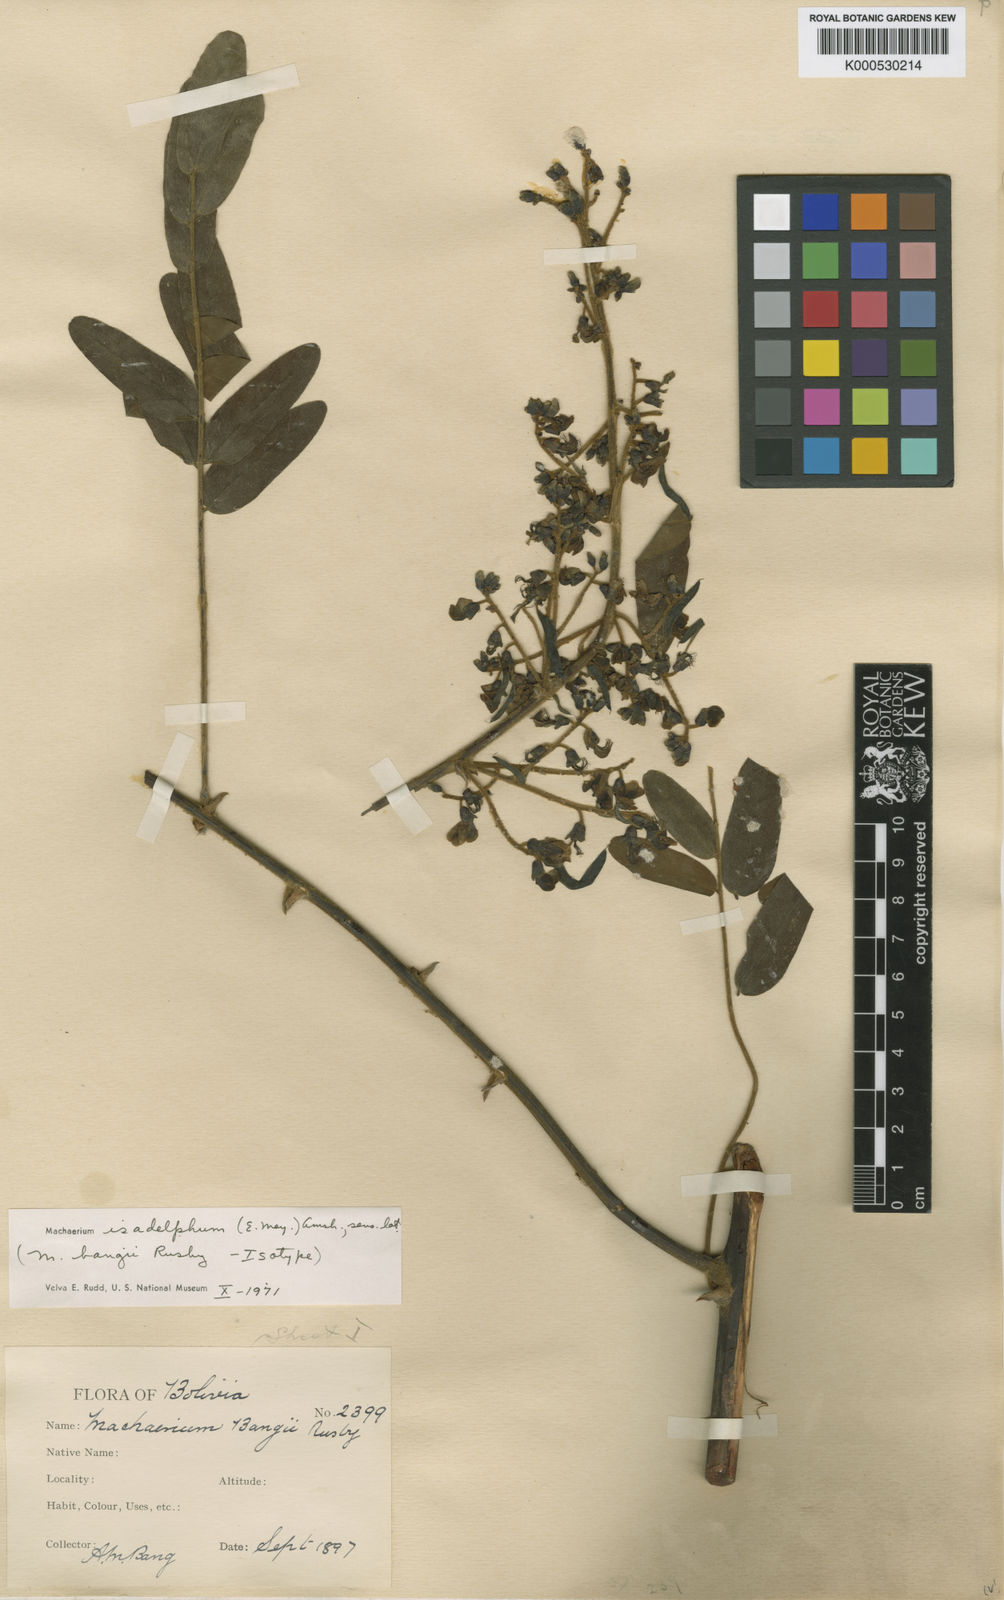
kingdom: Plantae
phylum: Tracheophyta
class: Magnoliopsida
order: Fabales
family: Fabaceae
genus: Machaerium
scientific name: Machaerium isadelphum
